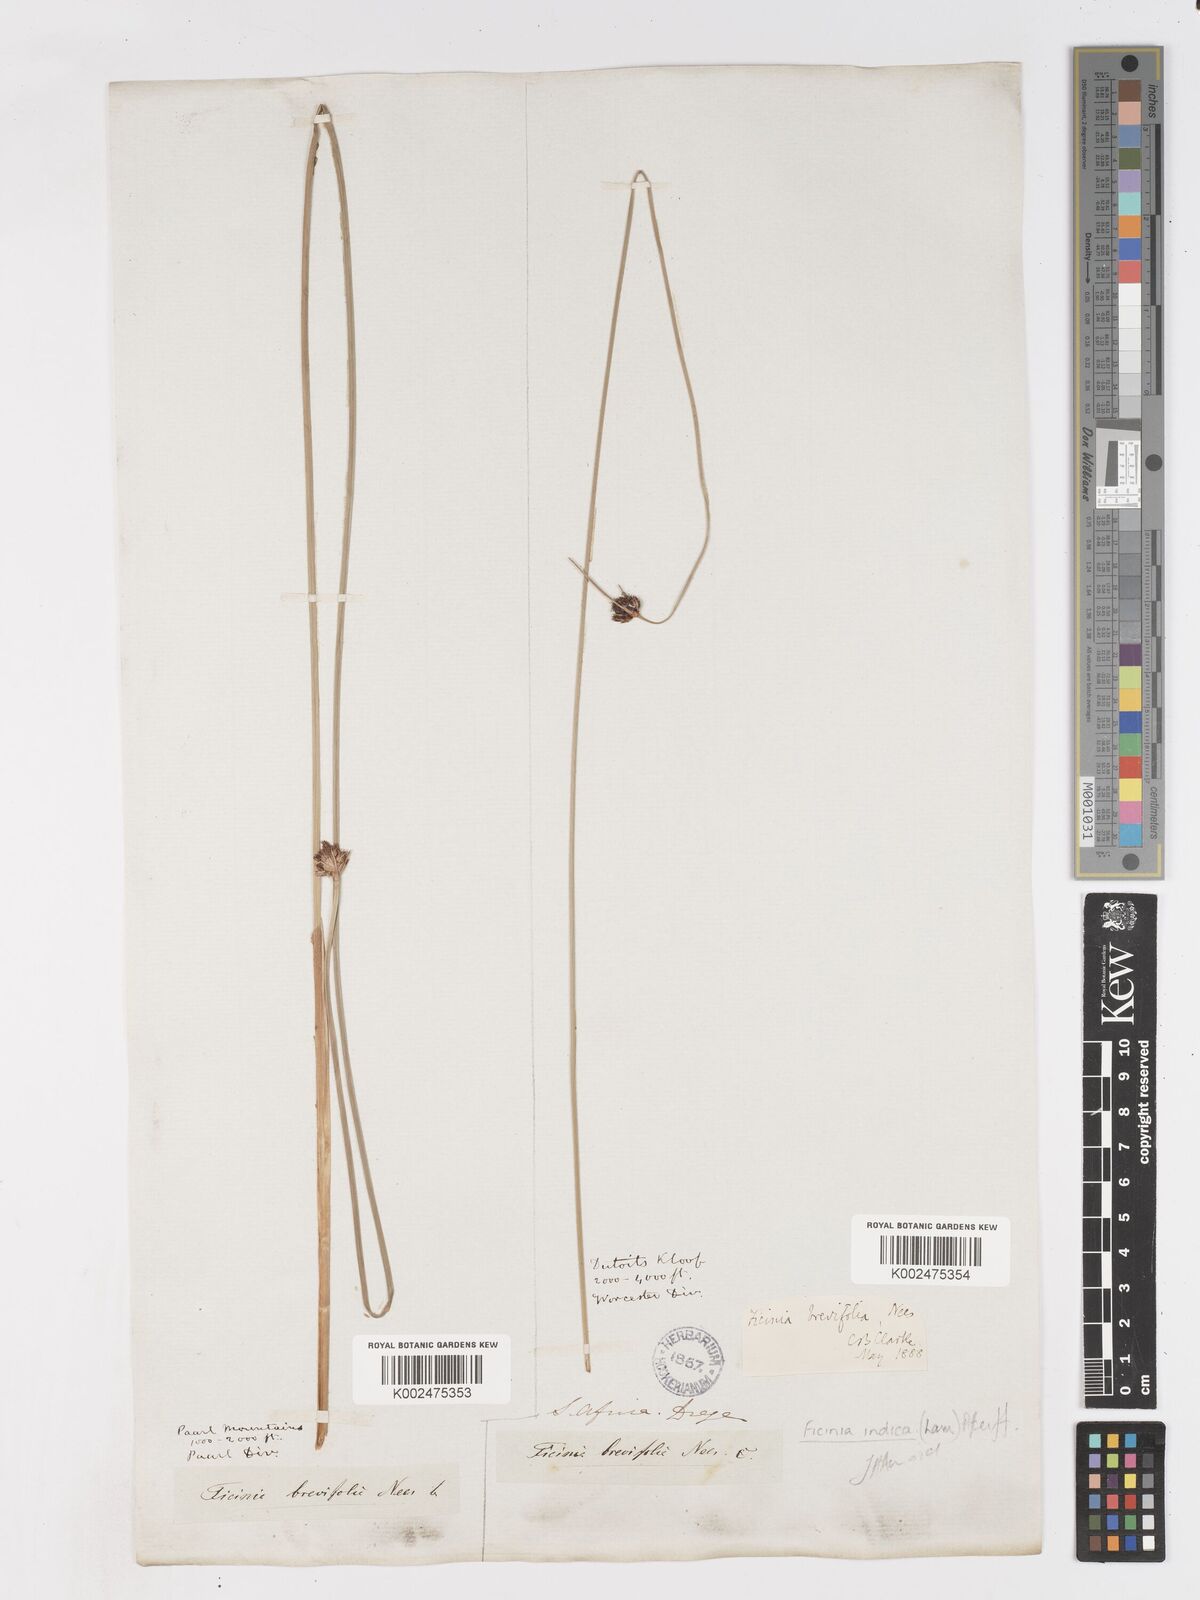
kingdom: Plantae
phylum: Tracheophyta
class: Liliopsida
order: Poales
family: Cyperaceae
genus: Ficinia
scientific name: Ficinia brevifolia
